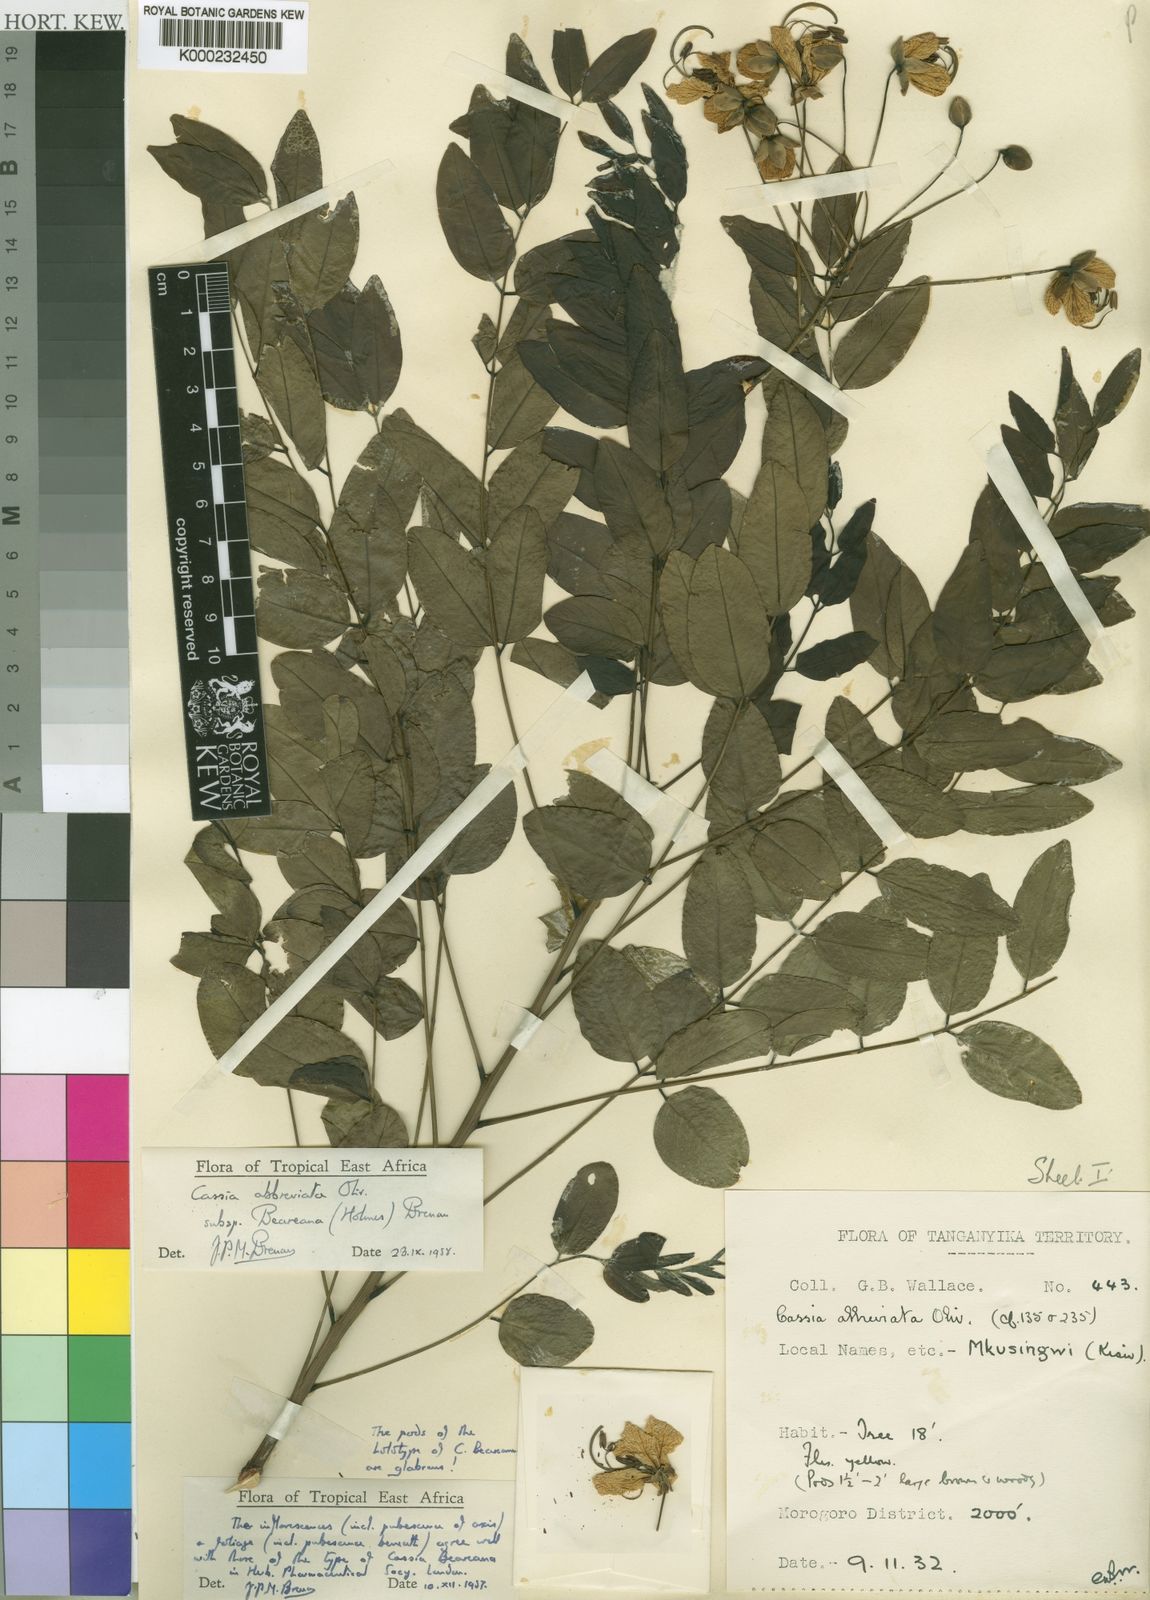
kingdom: Plantae
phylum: Tracheophyta
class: Magnoliopsida
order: Fabales
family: Fabaceae
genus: Cassia
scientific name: Cassia abbreviata
